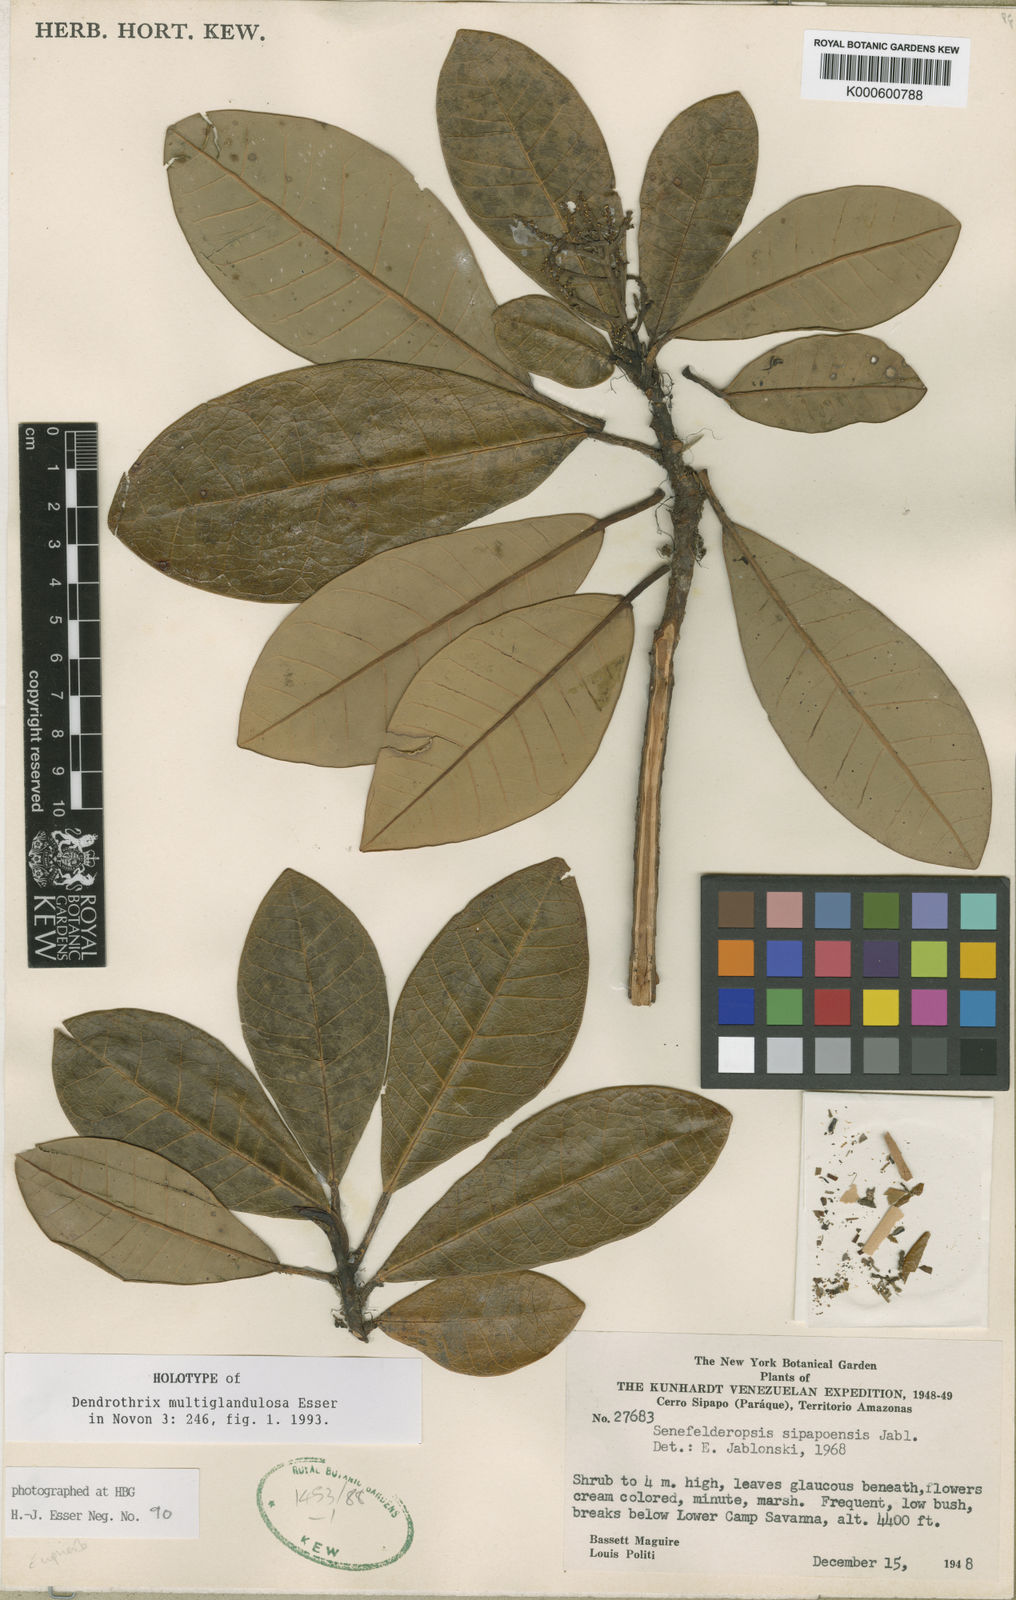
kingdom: Plantae
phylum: Tracheophyta
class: Magnoliopsida
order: Malpighiales
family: Euphorbiaceae
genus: Dendrothrix
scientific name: Dendrothrix multiglandulosa
